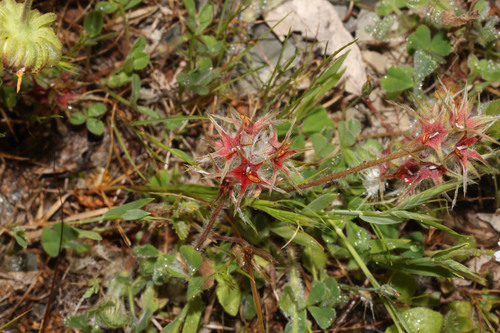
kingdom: Plantae
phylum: Tracheophyta
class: Magnoliopsida
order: Fabales
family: Fabaceae
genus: Trifolium
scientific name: Trifolium stellatum
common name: Starry clover
